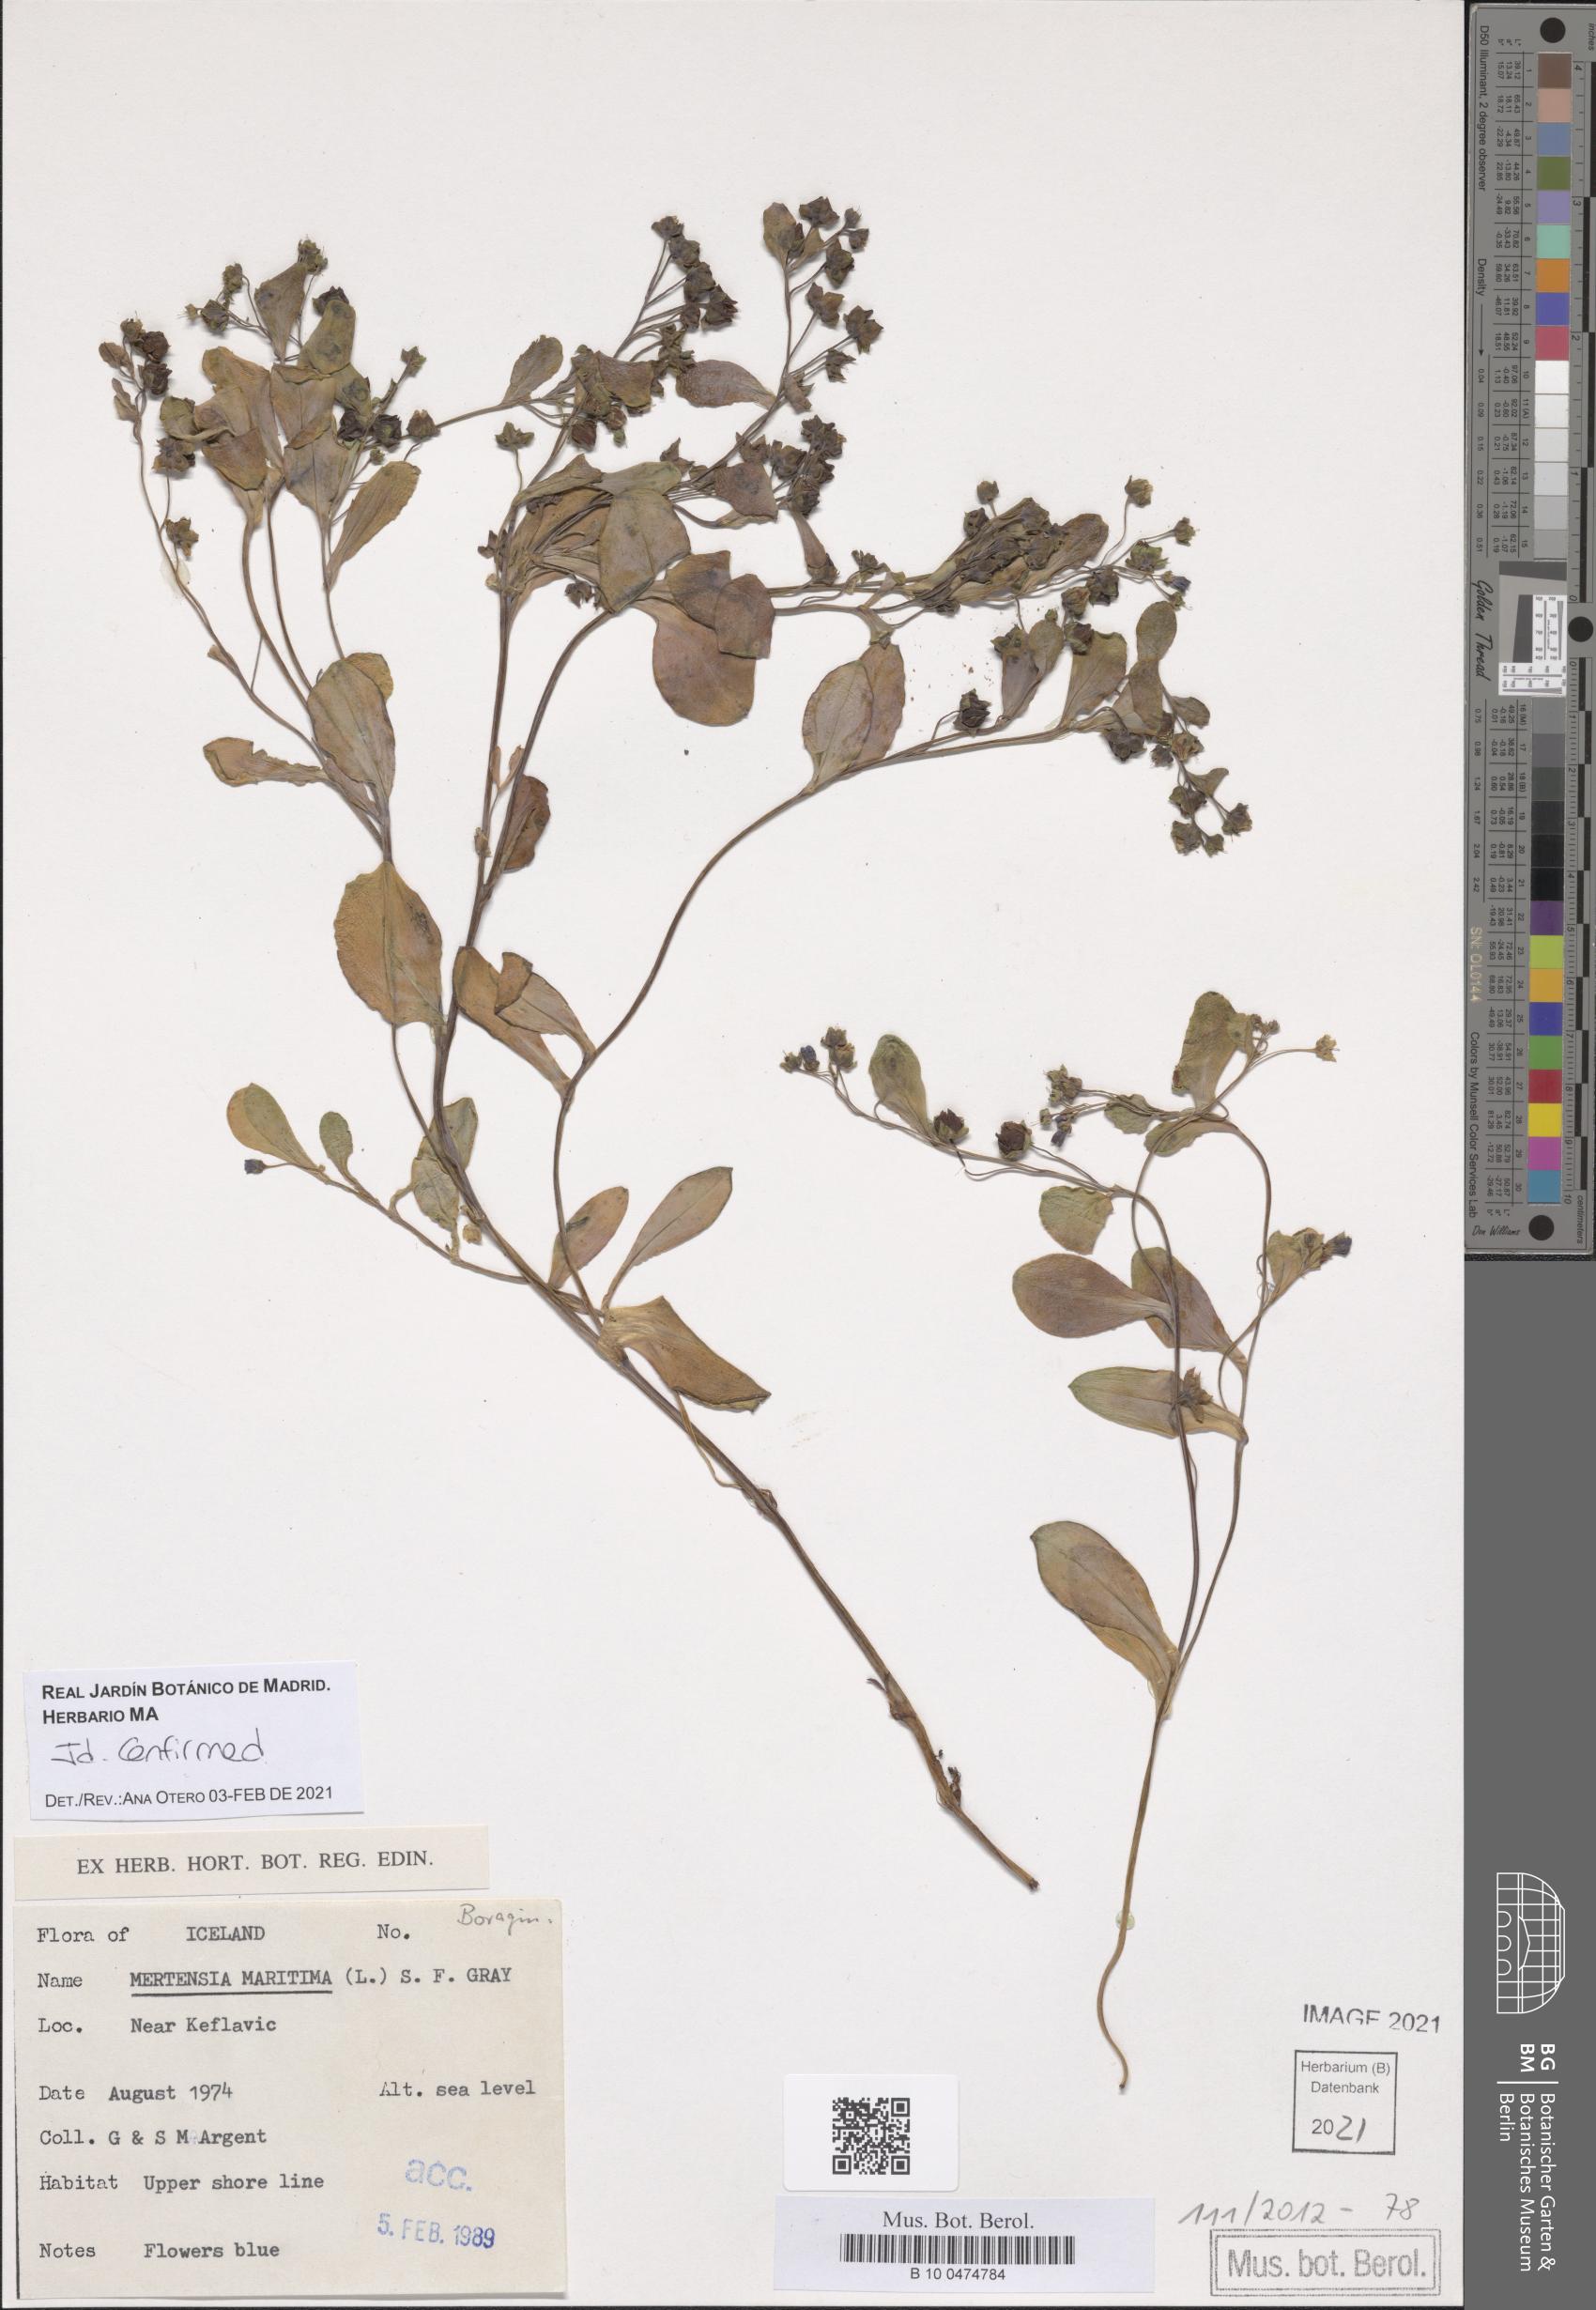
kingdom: Plantae
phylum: Tracheophyta
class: Magnoliopsida
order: Boraginales
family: Boraginaceae
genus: Mertensia
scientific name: Mertensia maritima
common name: Oysterplant
